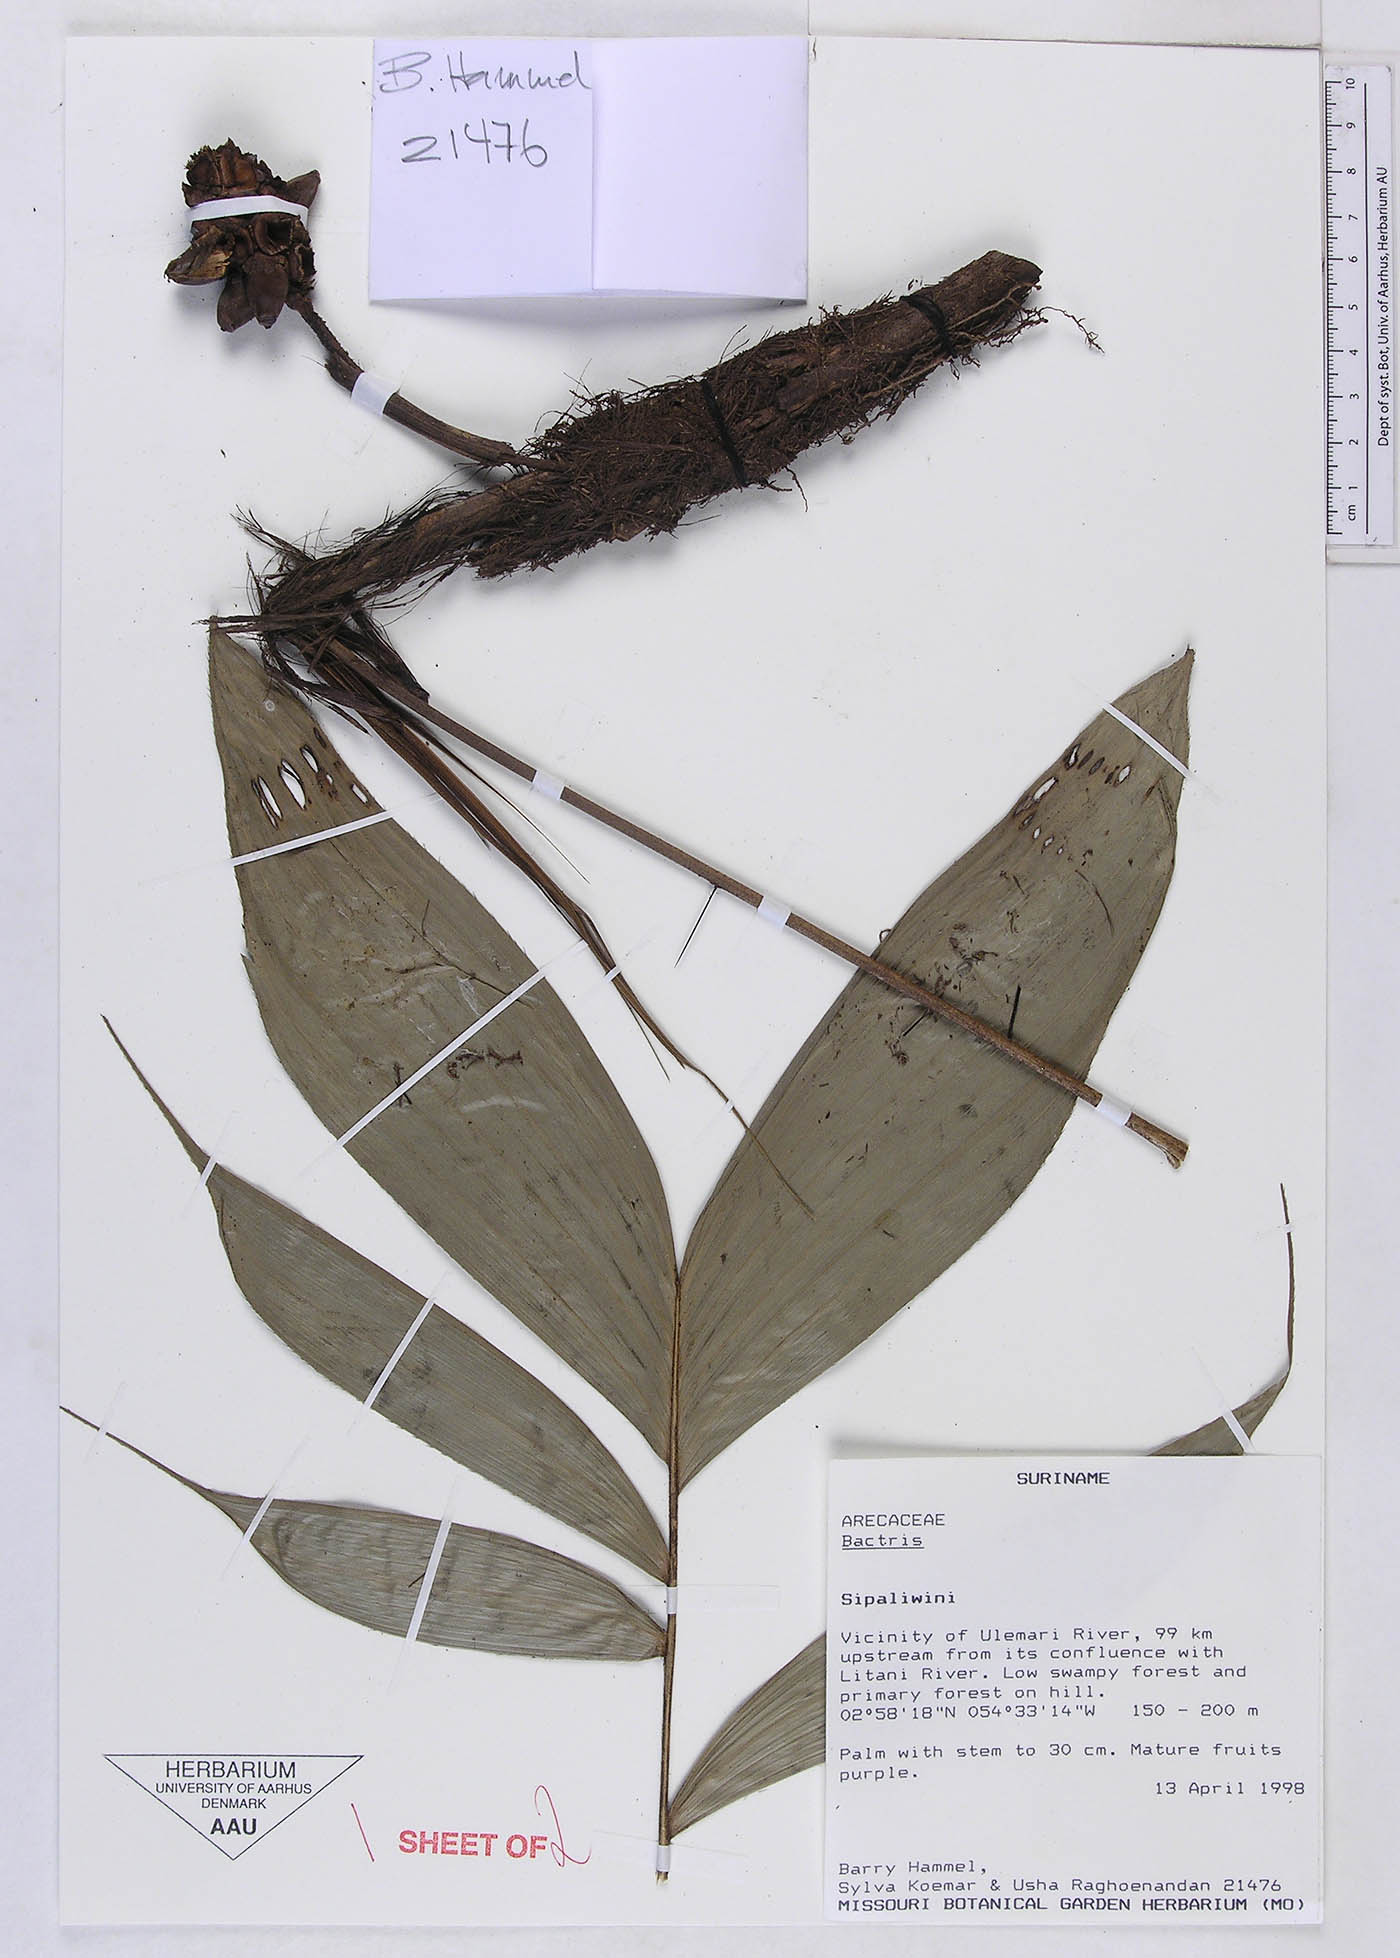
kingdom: Plantae
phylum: Tracheophyta
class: Liliopsida
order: Arecales
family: Arecaceae
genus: Bactris
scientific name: Bactris
